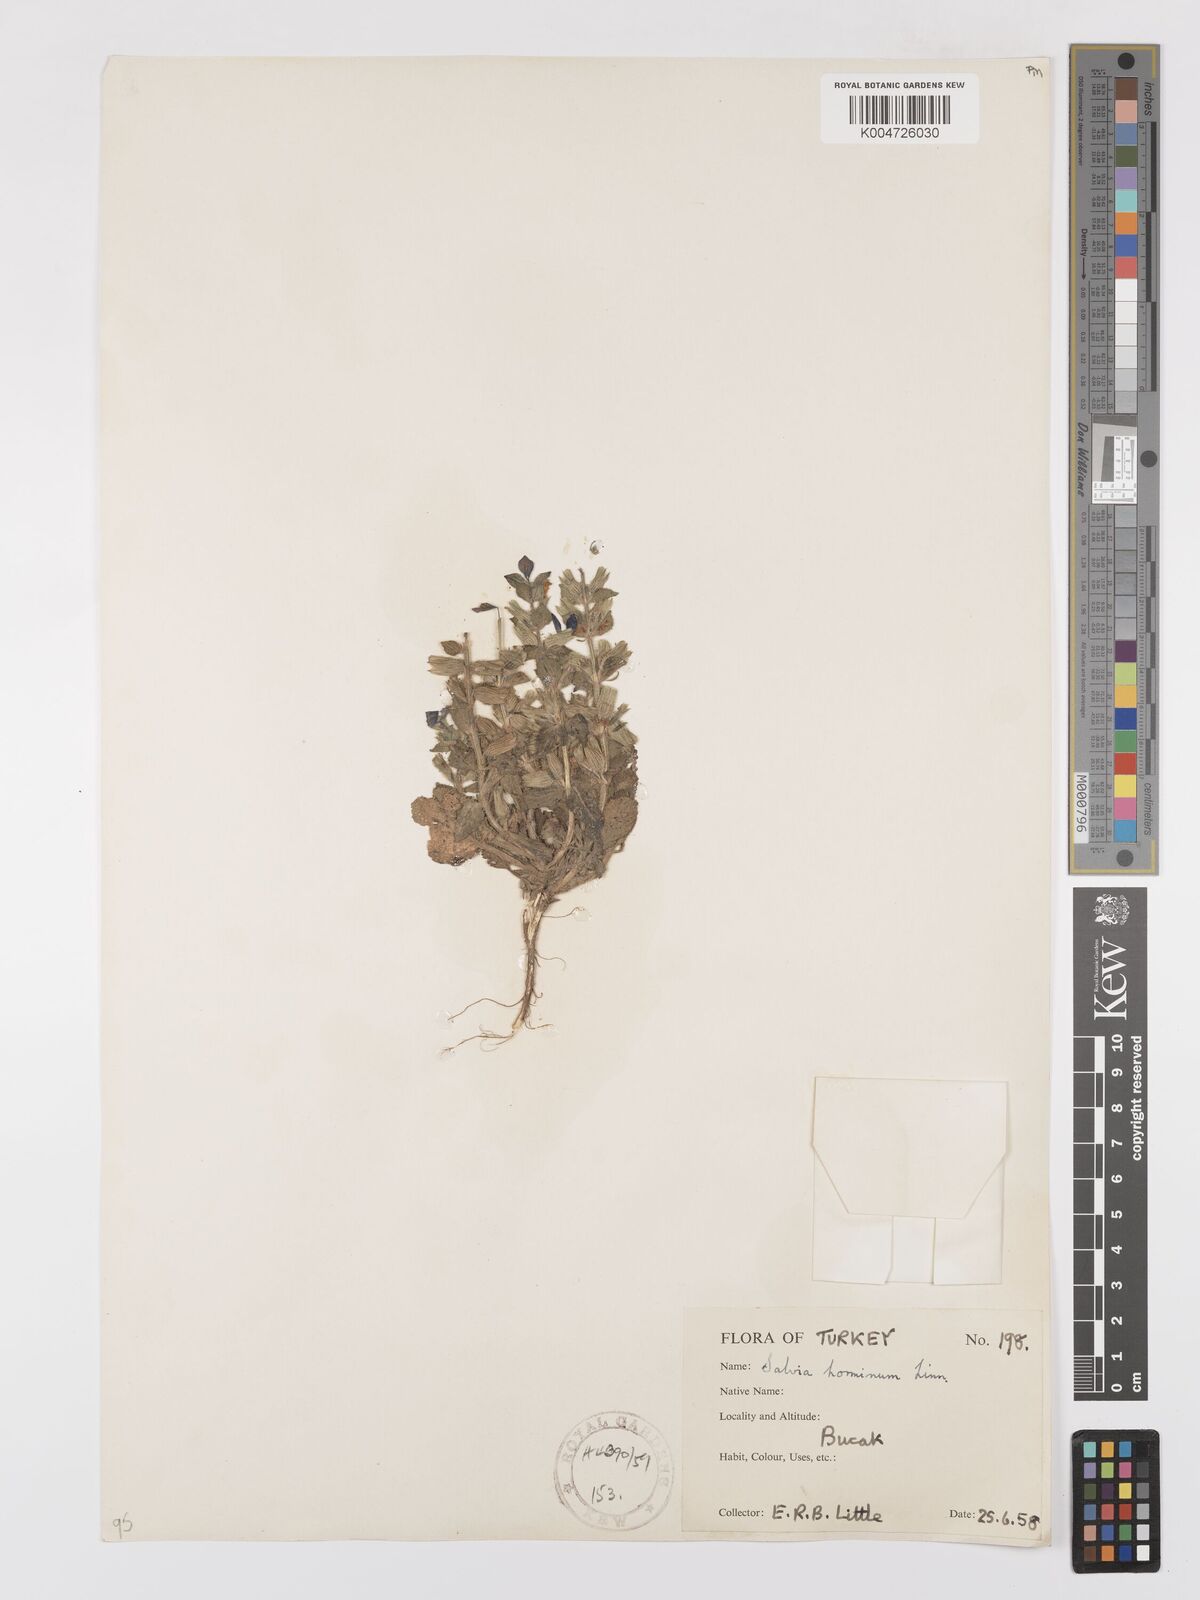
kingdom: Plantae
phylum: Tracheophyta
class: Magnoliopsida
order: Lamiales
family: Lamiaceae
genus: Salvia
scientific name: Salvia viridis
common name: Annual clary
